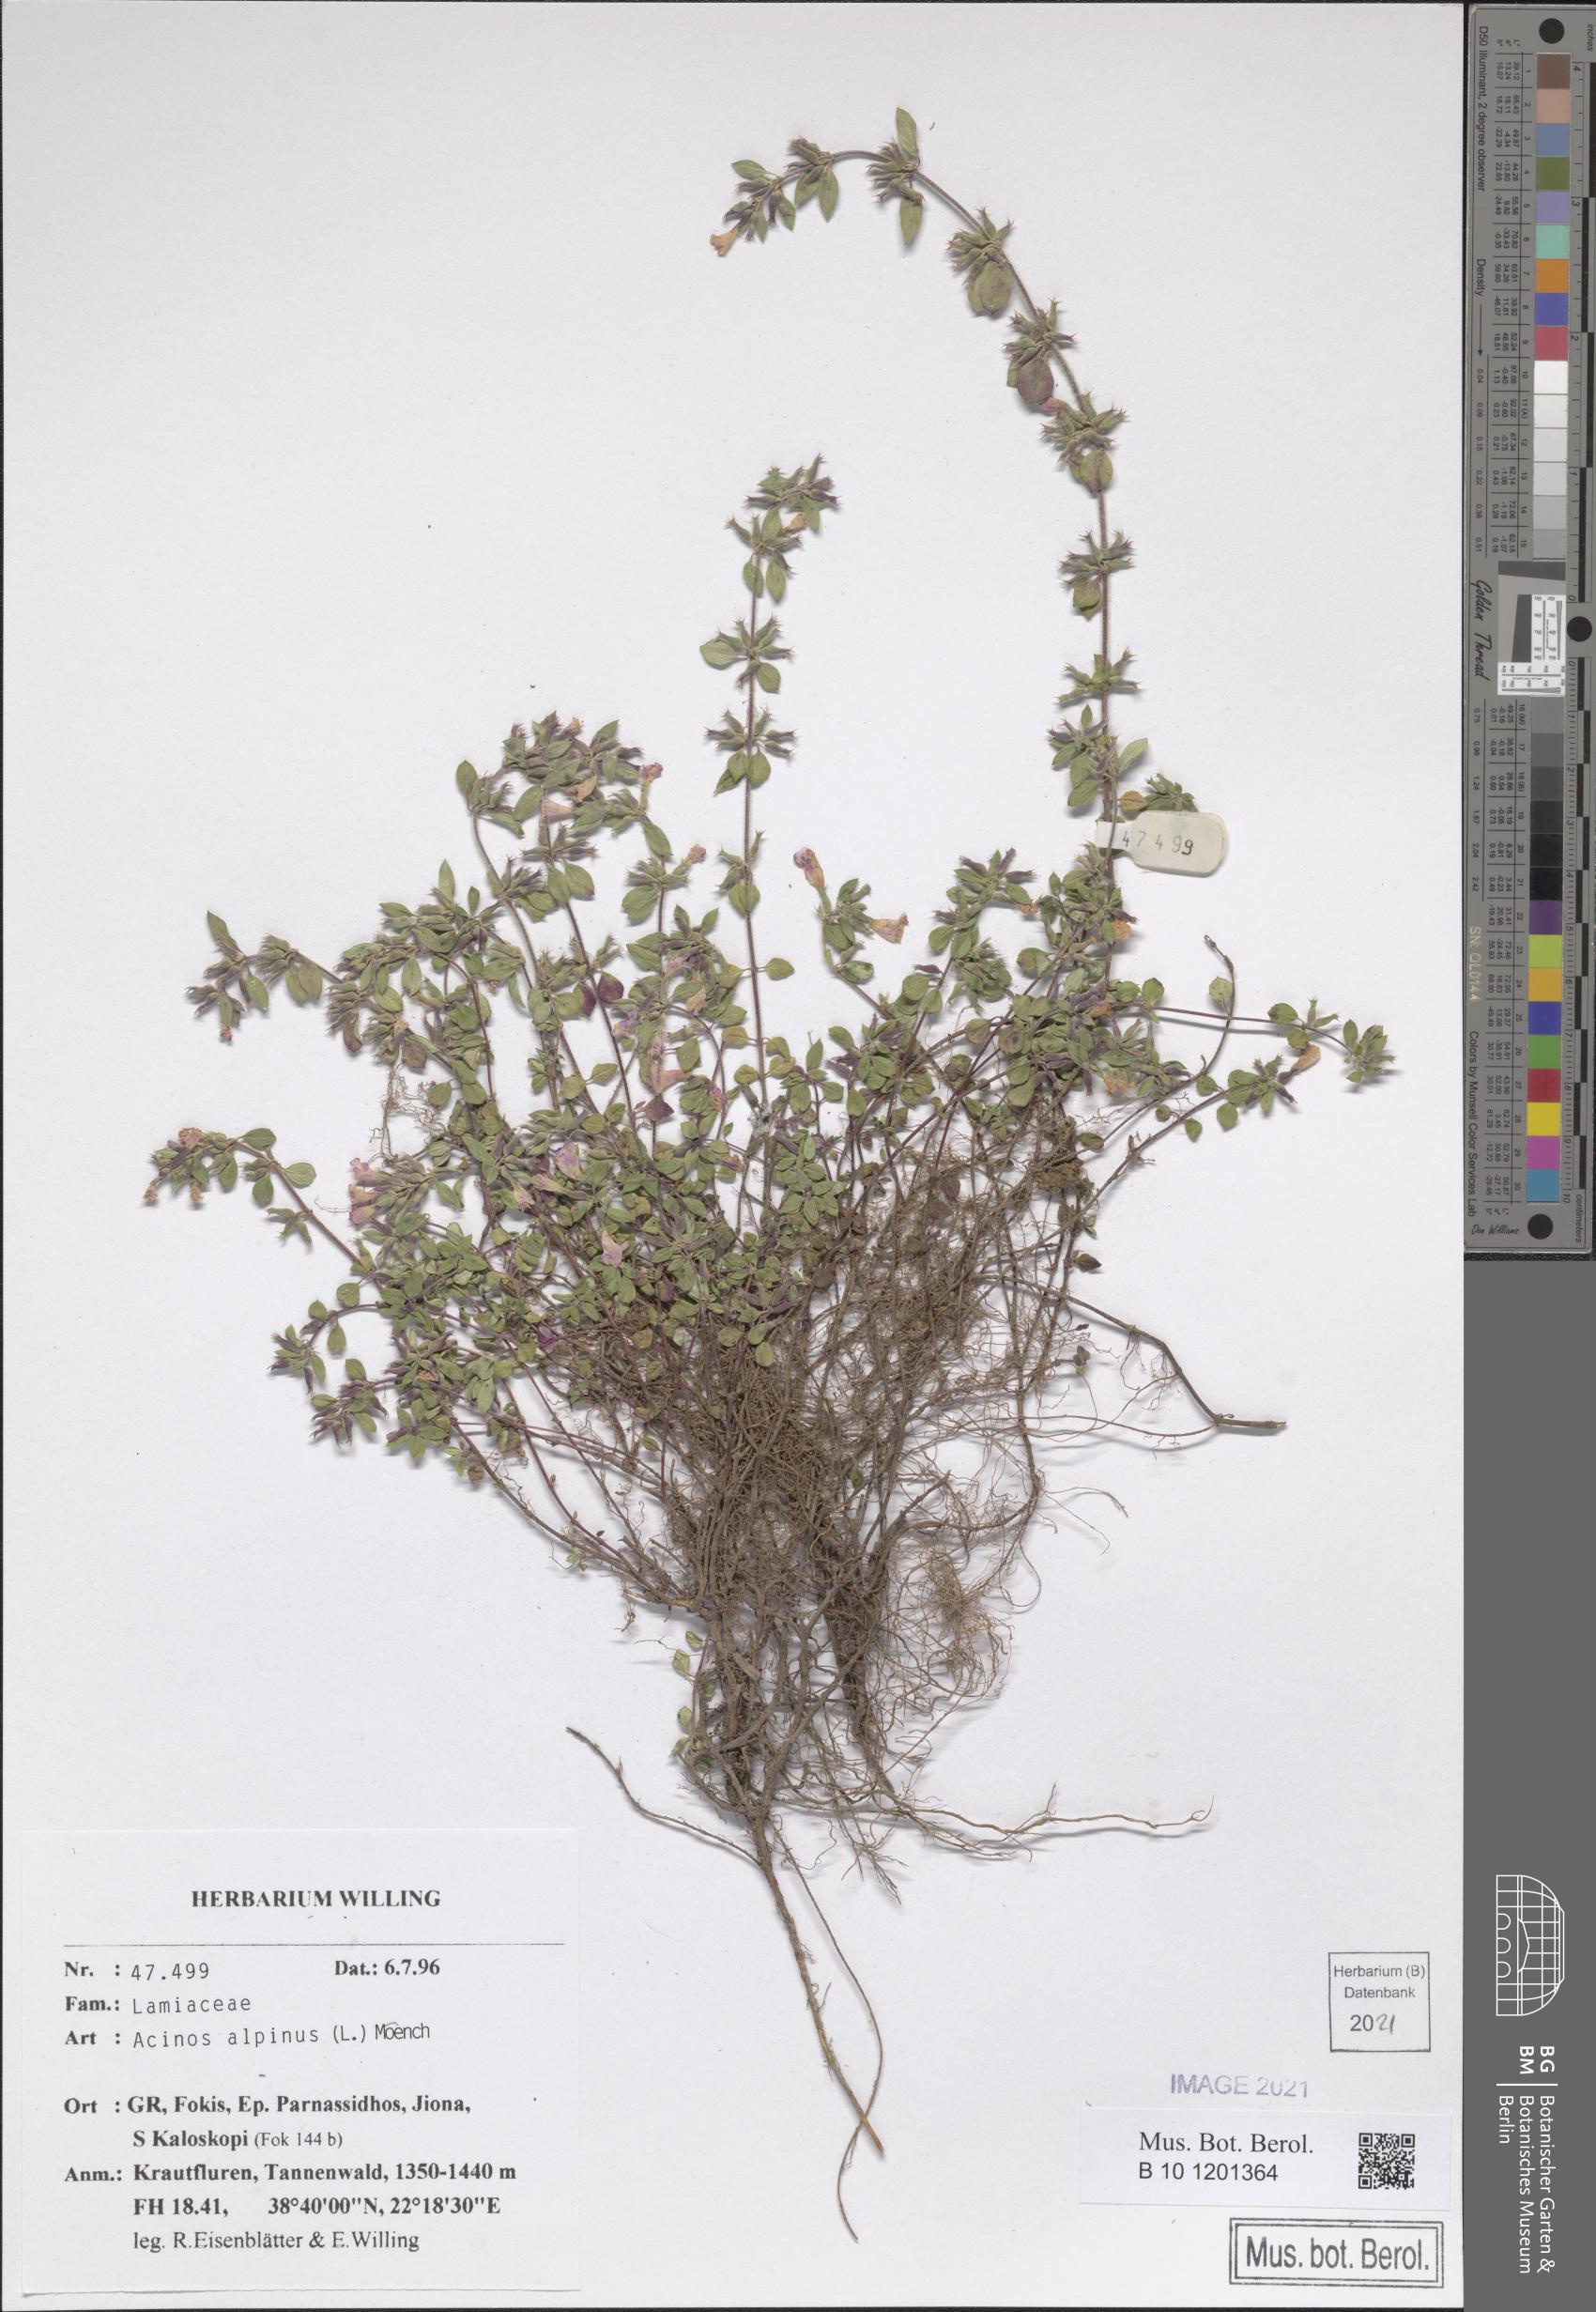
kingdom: Plantae
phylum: Tracheophyta
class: Magnoliopsida
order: Lamiales
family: Lamiaceae
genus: Clinopodium
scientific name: Clinopodium alpinum
